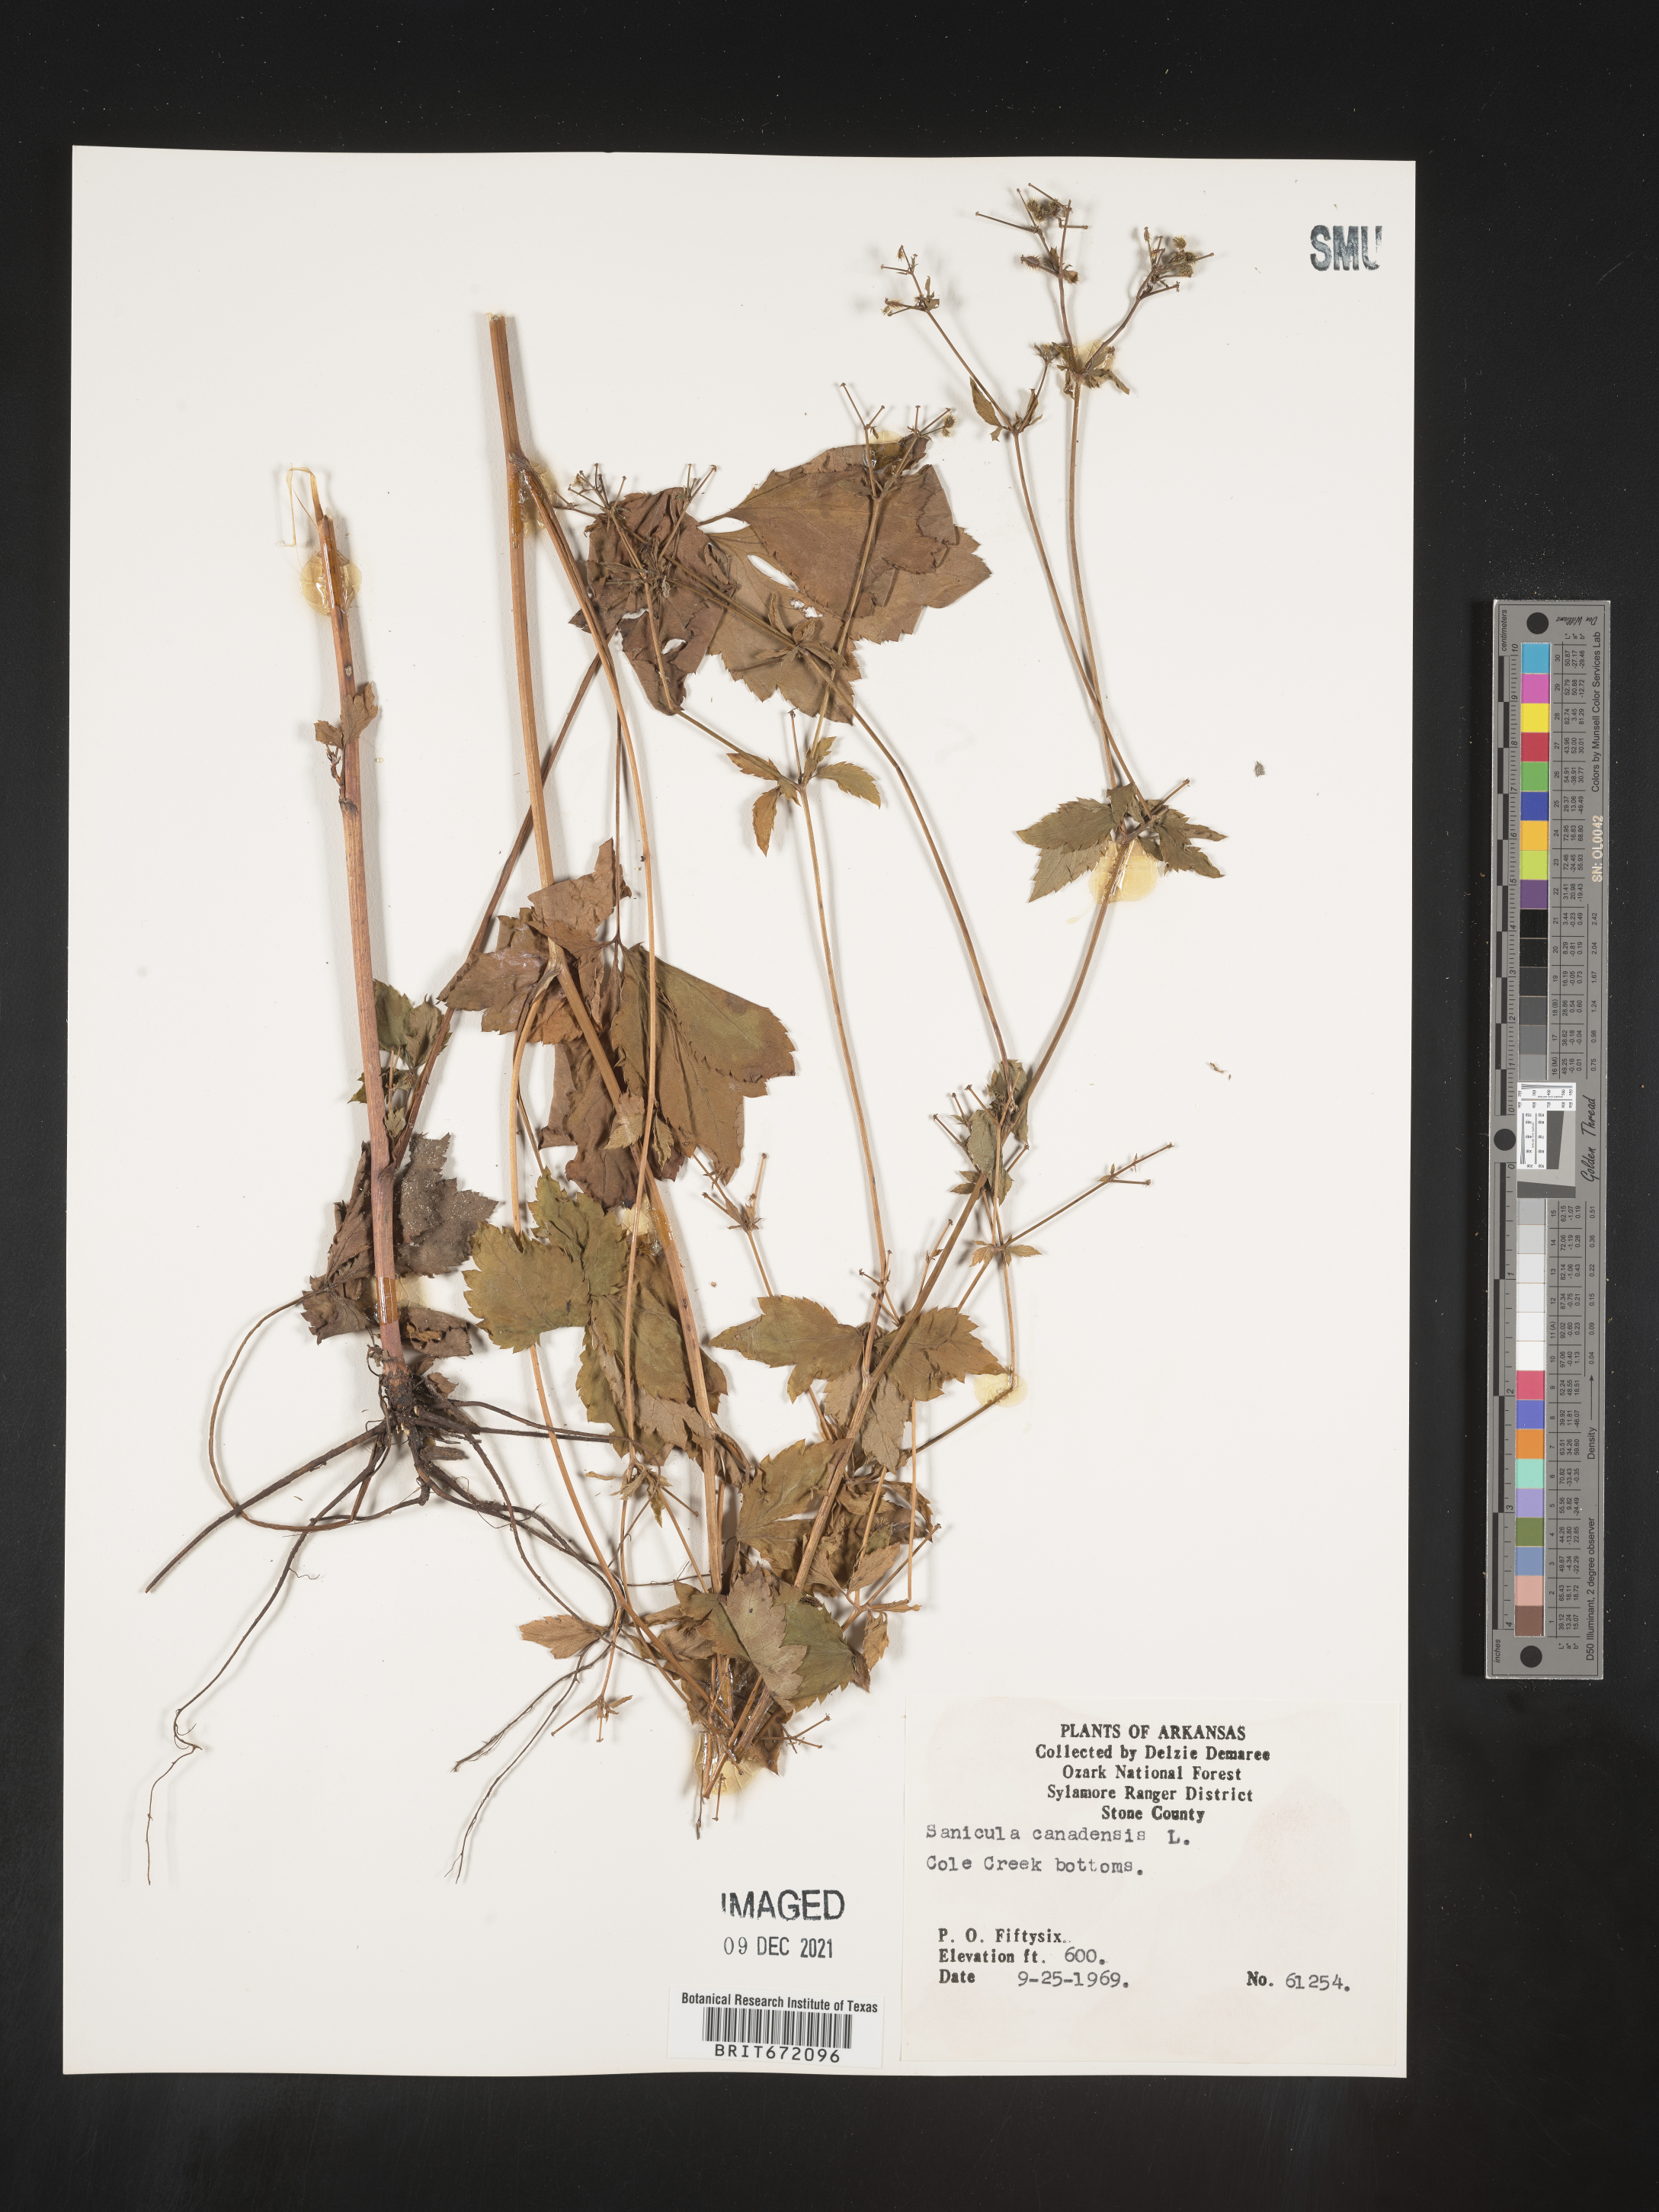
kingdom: Plantae
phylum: Tracheophyta
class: Magnoliopsida
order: Apiales
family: Apiaceae
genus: Sanicula
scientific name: Sanicula canadensis
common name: Canada sanicle
